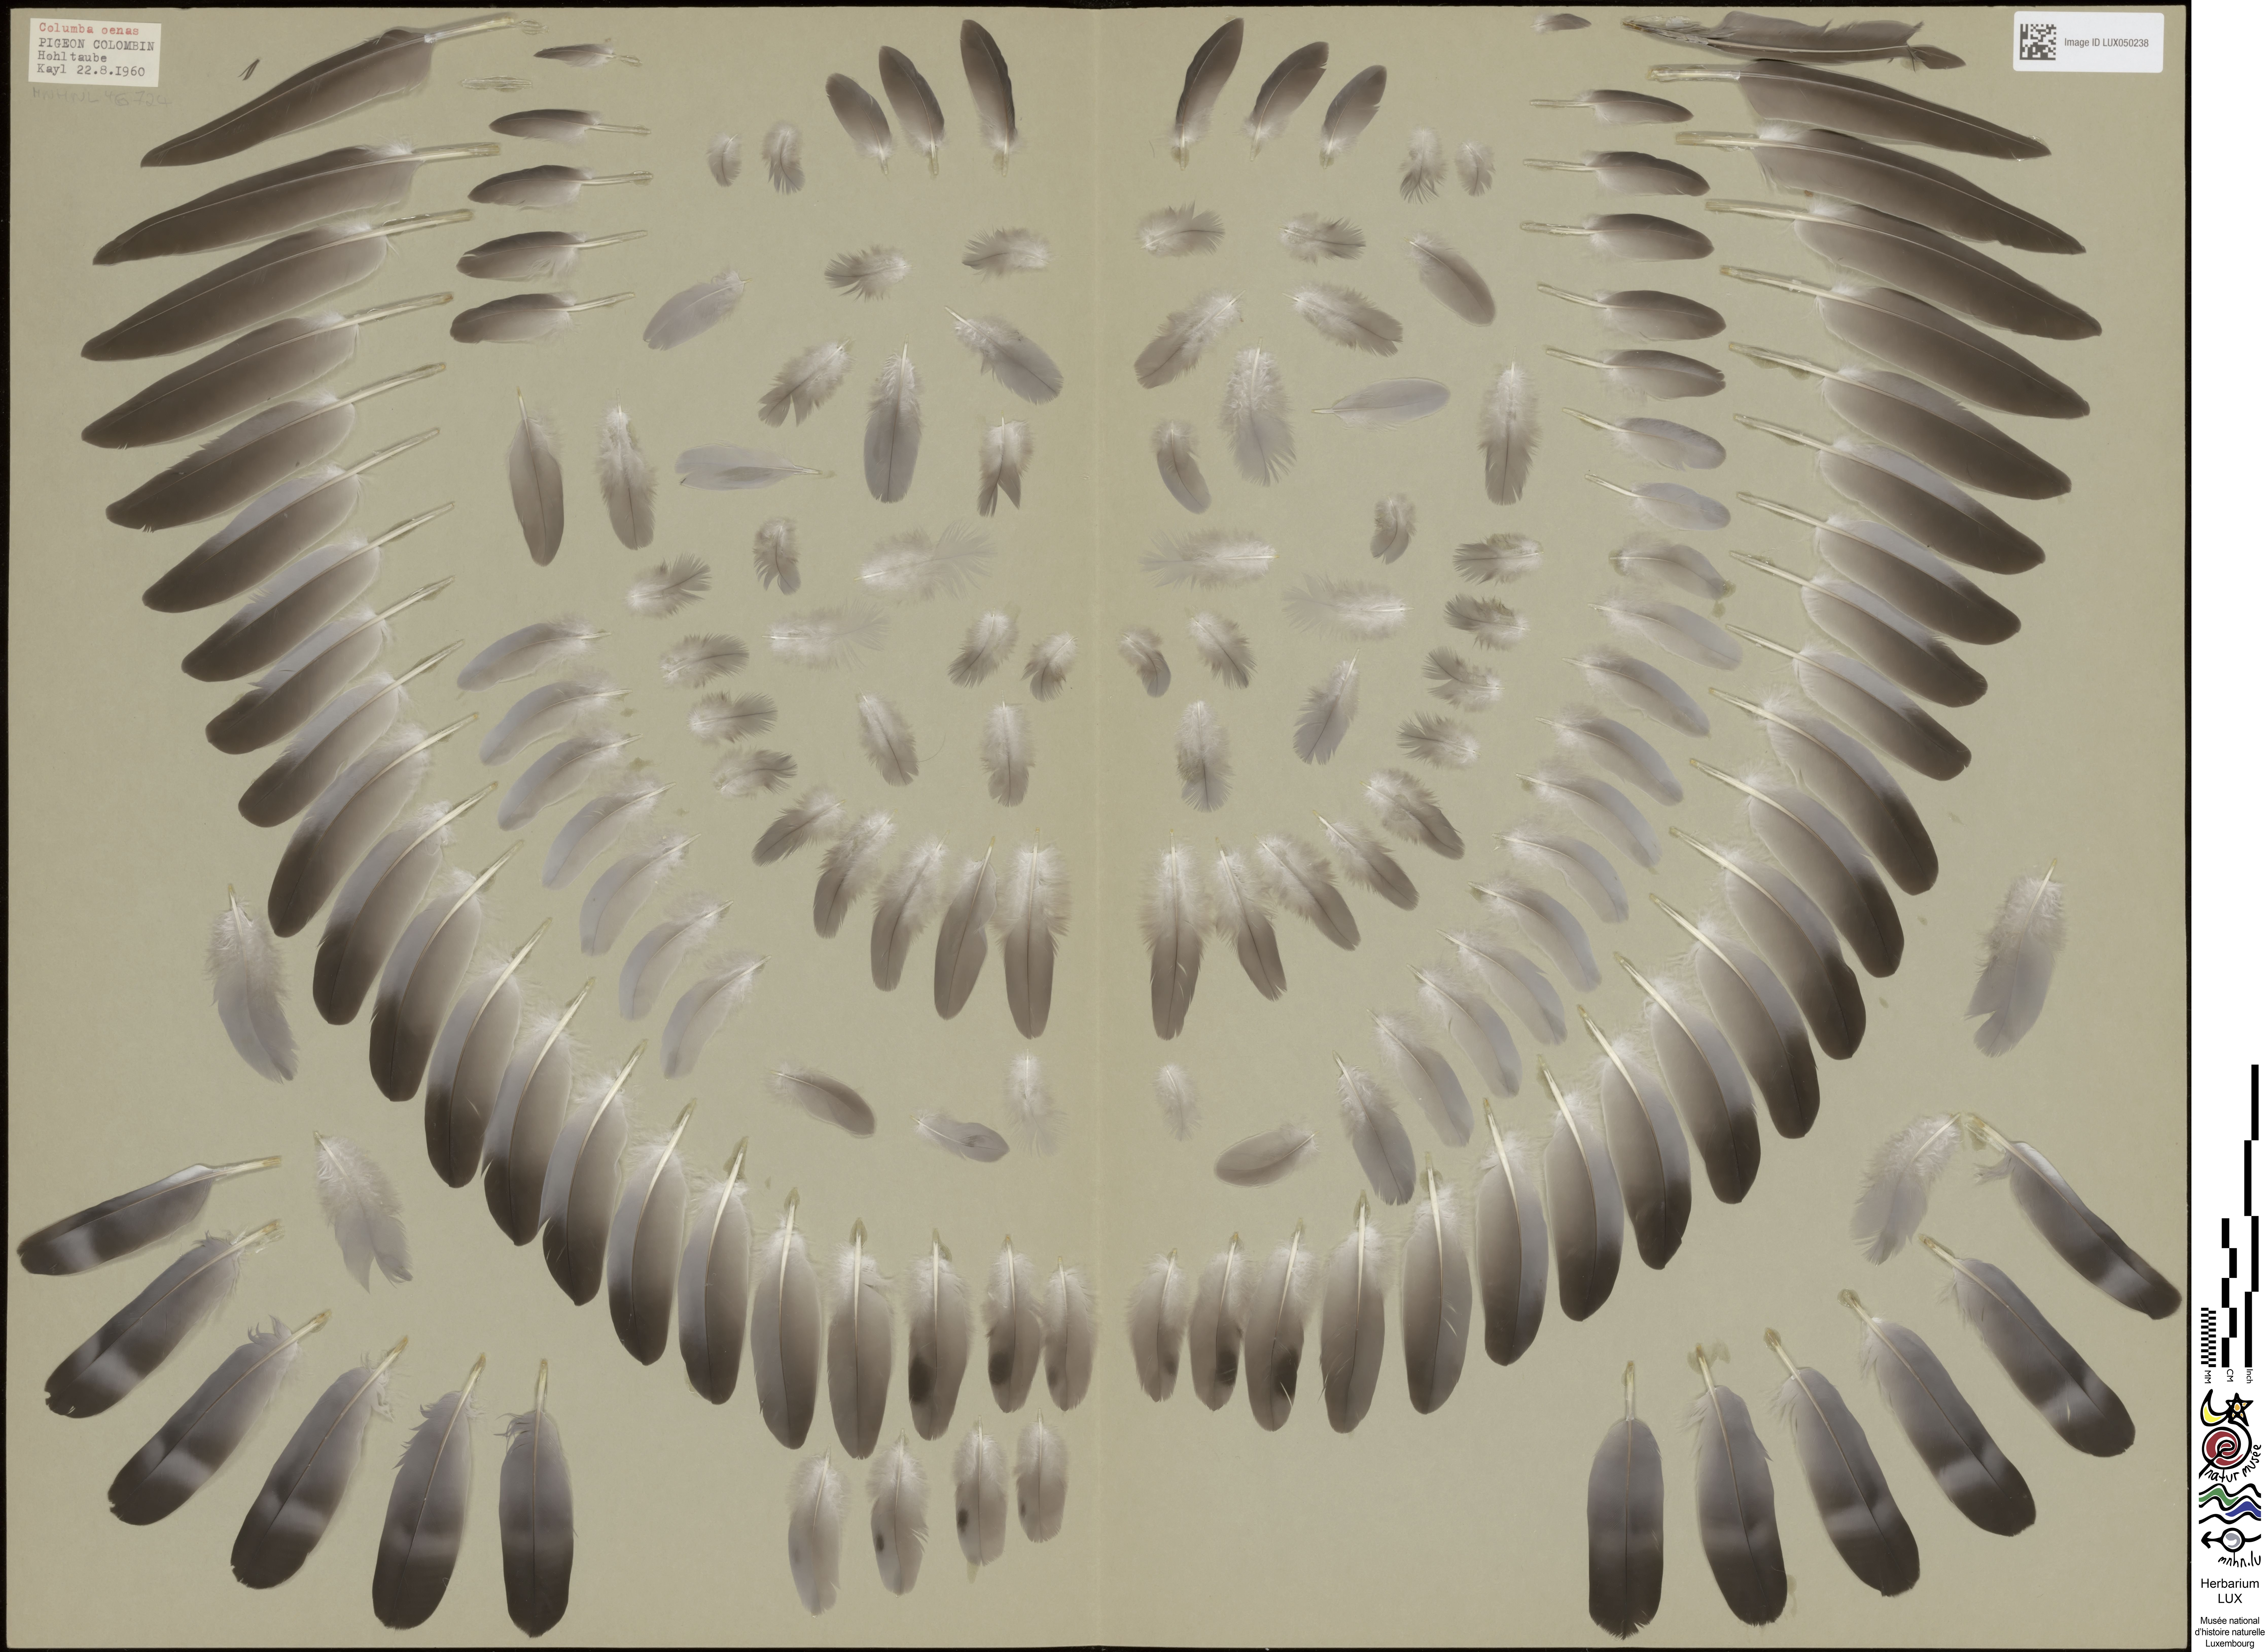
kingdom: Animalia
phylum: Chordata
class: Aves
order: Columbiformes
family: Columbidae
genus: Columba
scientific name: Columba oenas
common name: Stock dove
